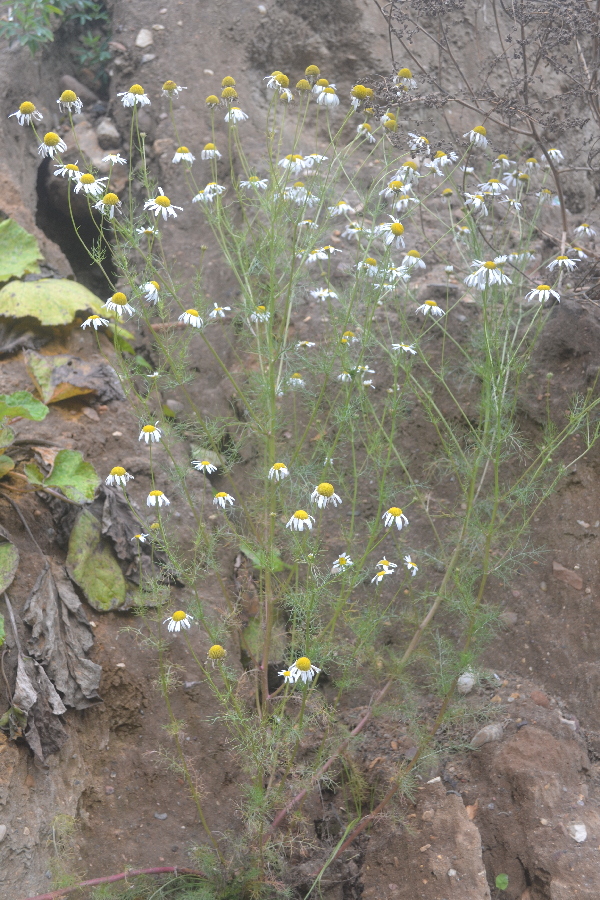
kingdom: Plantae
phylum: Tracheophyta
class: Magnoliopsida
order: Asterales
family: Asteraceae
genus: Tripleurospermum
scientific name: Tripleurospermum inodorum
